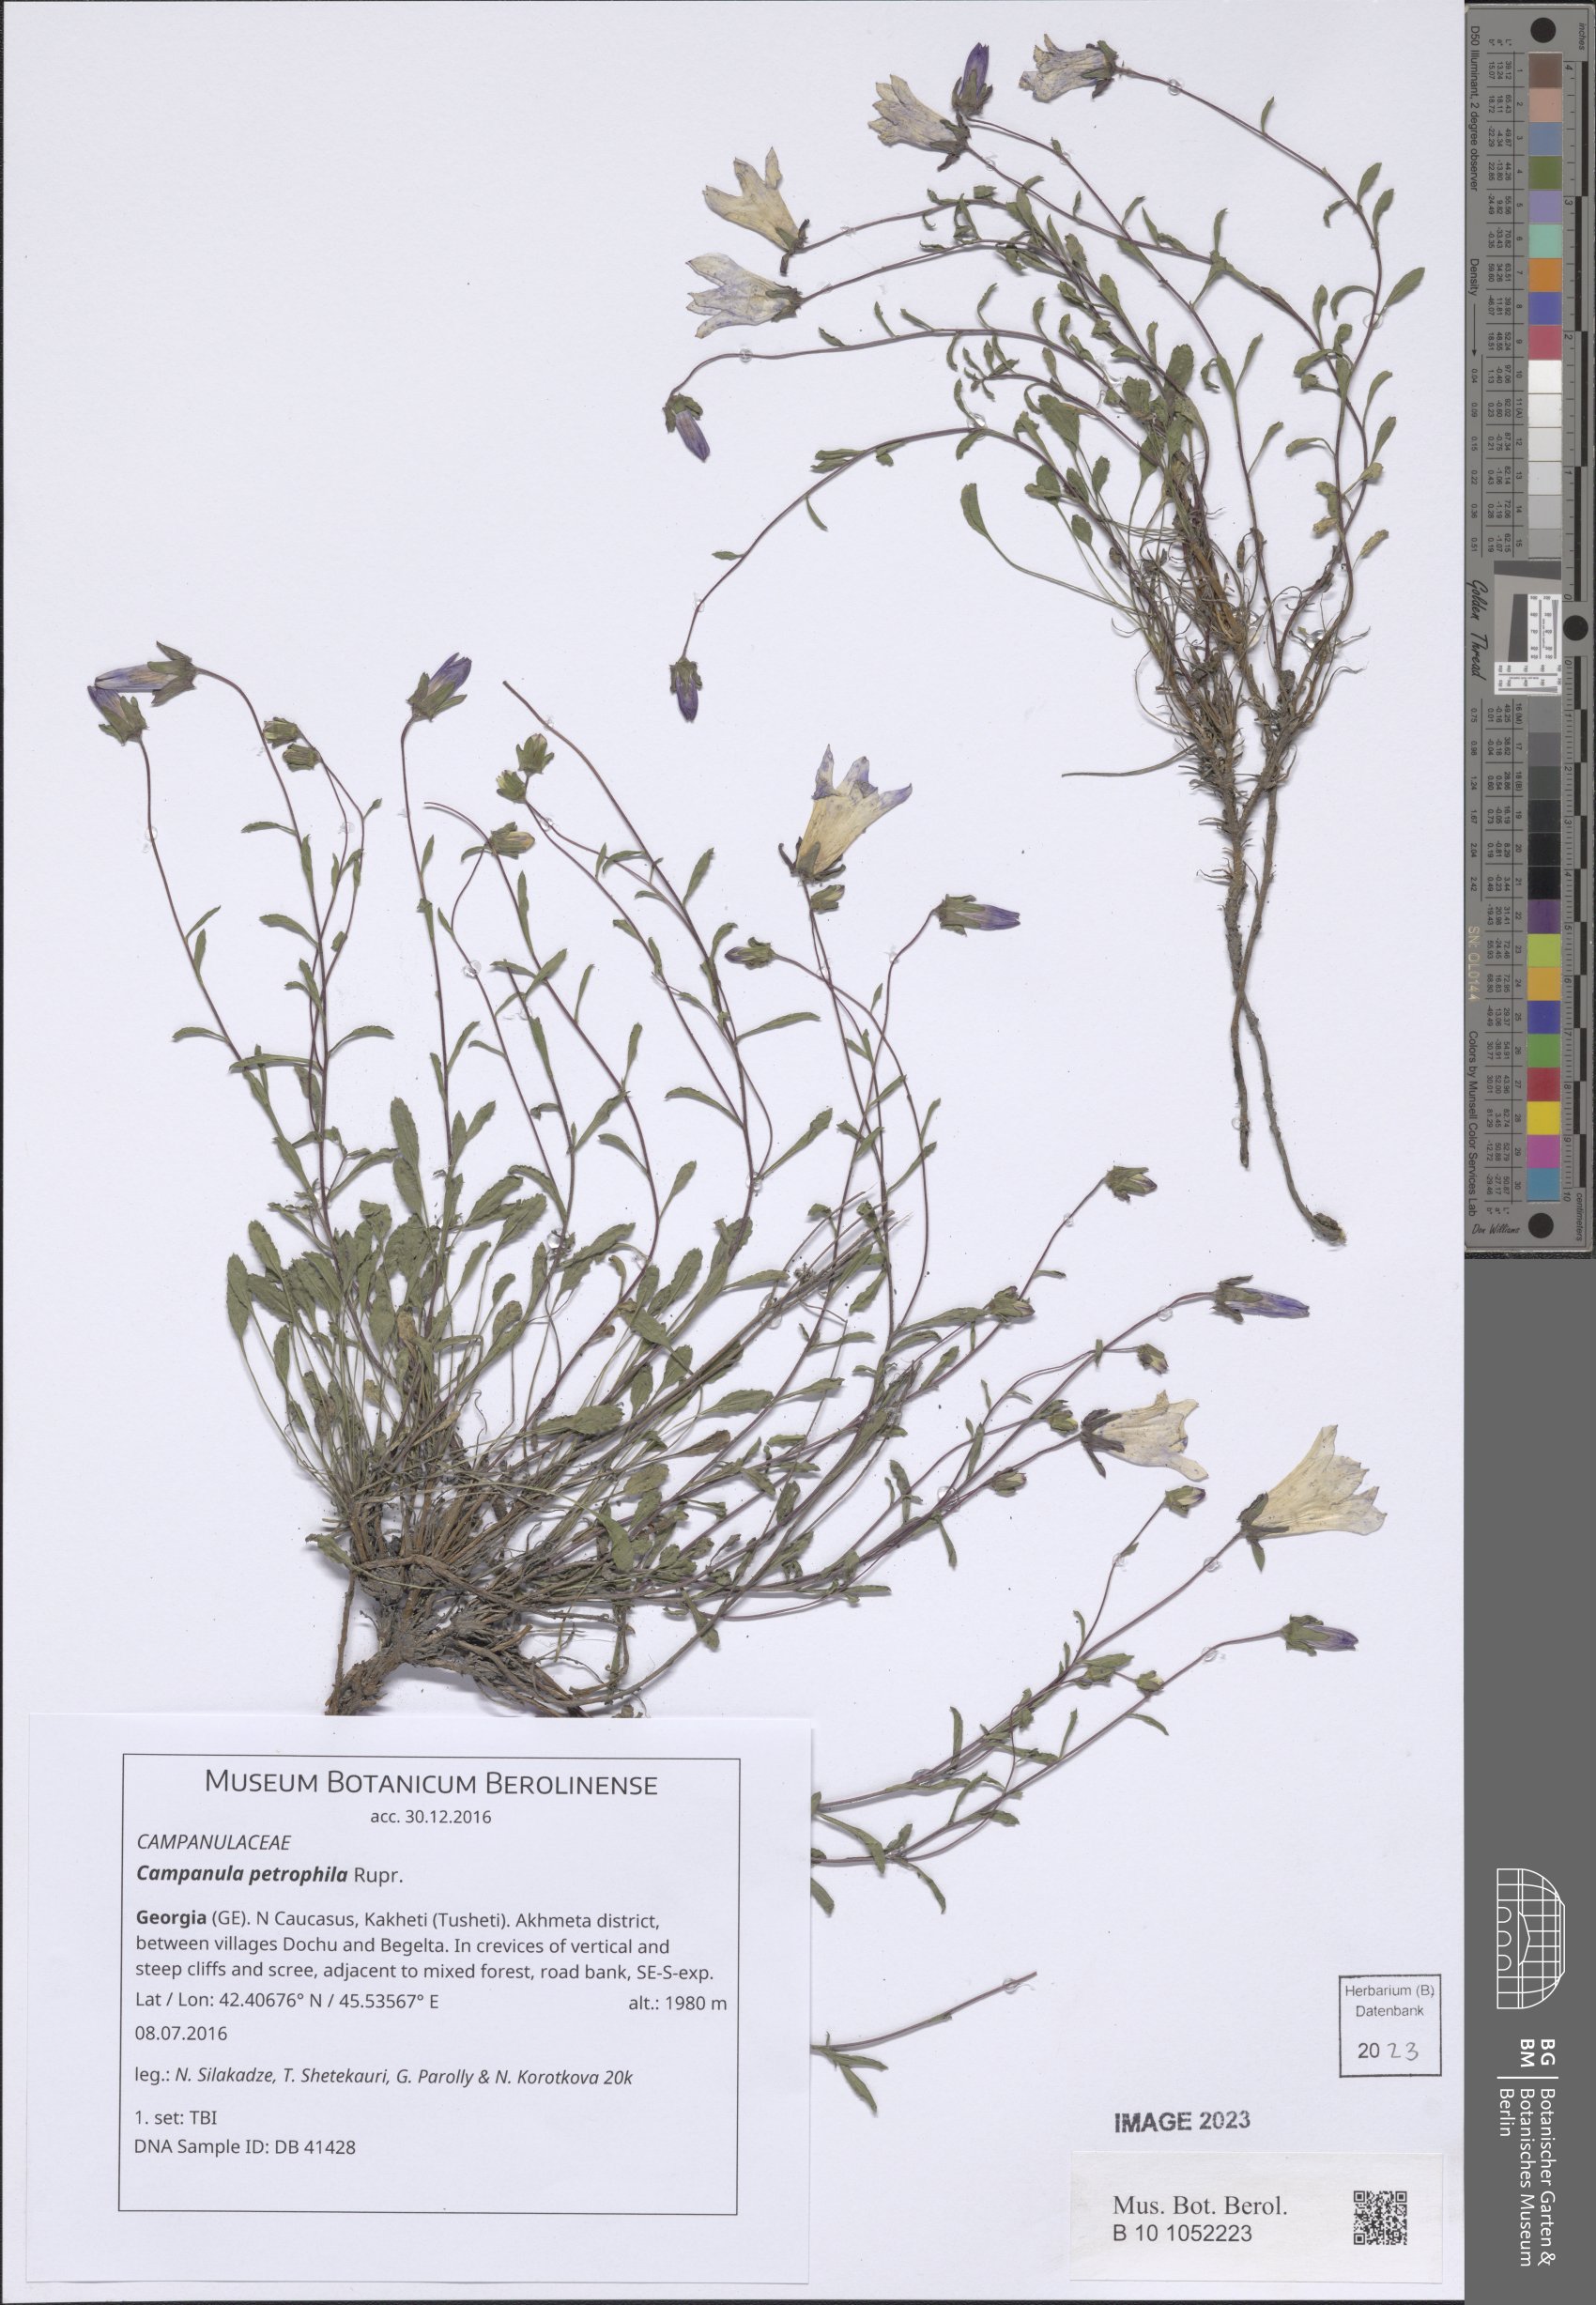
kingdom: Plantae
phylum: Tracheophyta
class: Magnoliopsida
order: Asterales
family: Campanulaceae
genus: Campanula
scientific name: Campanula petrophila
